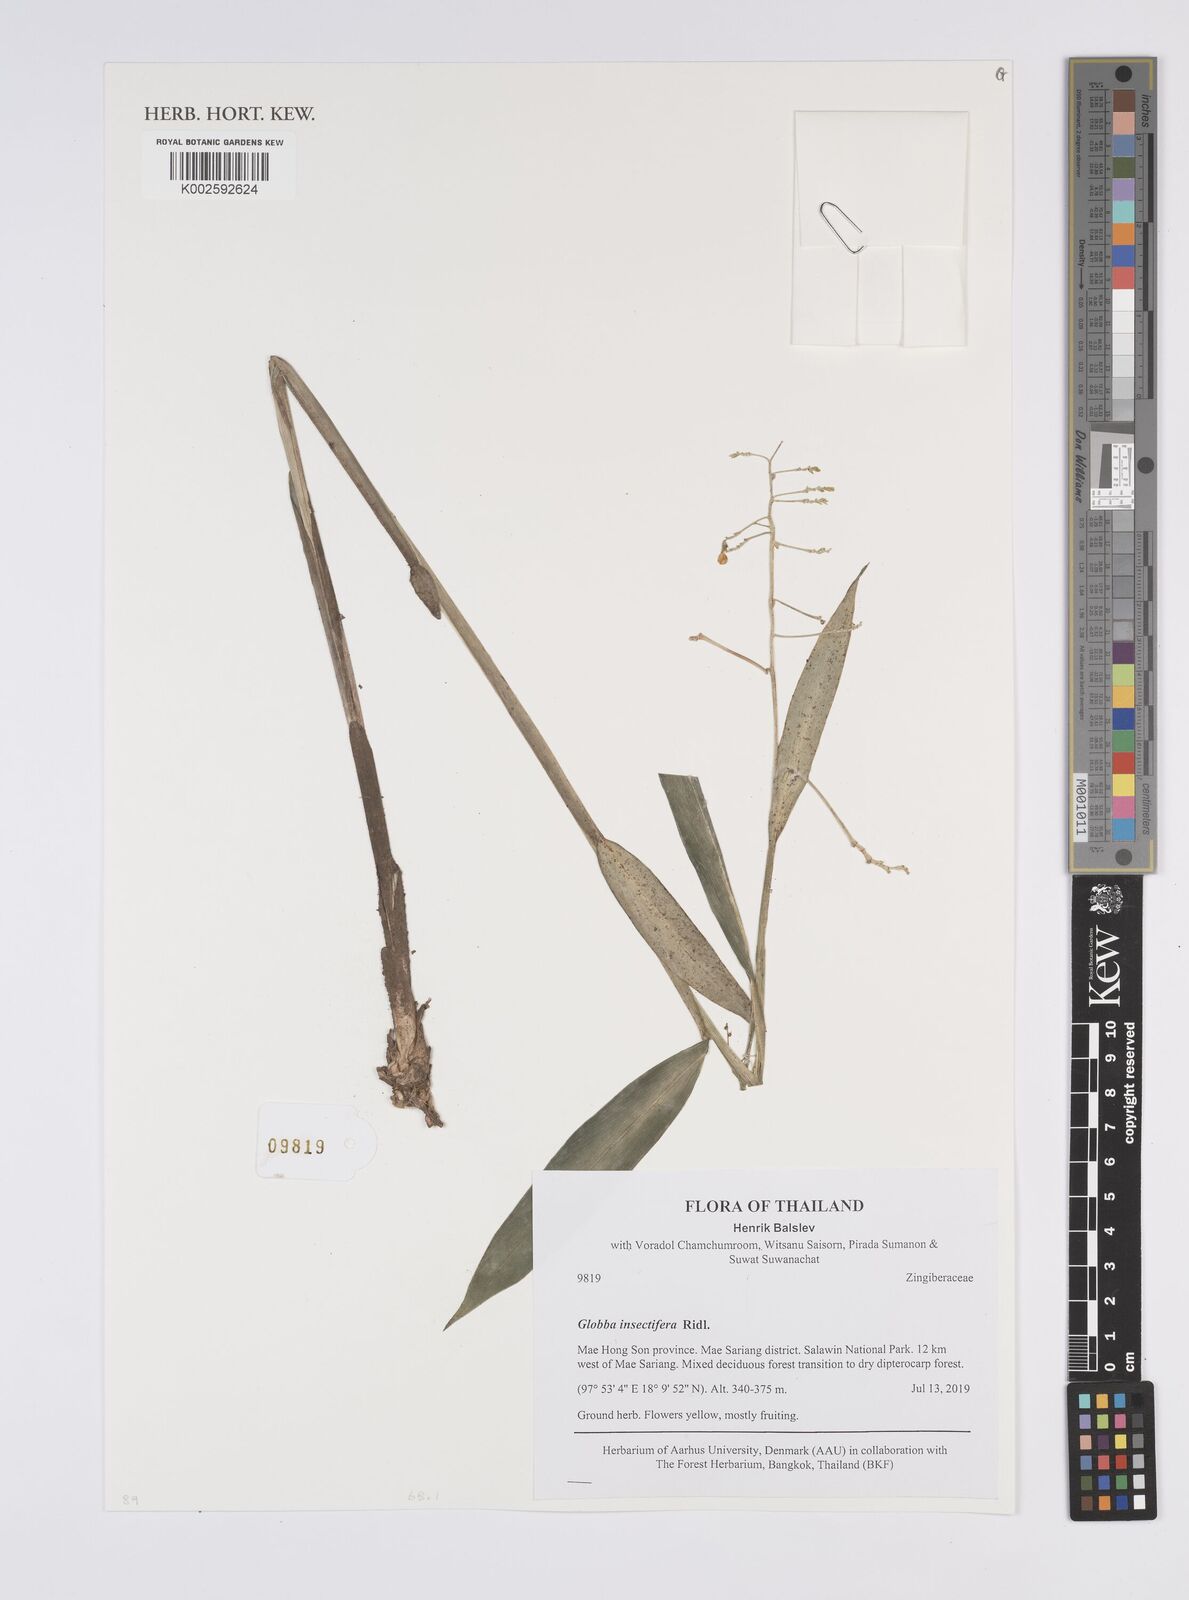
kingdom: Plantae
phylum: Tracheophyta
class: Liliopsida
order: Zingiberales
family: Zingiberaceae
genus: Globba
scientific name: Globba insectifera
